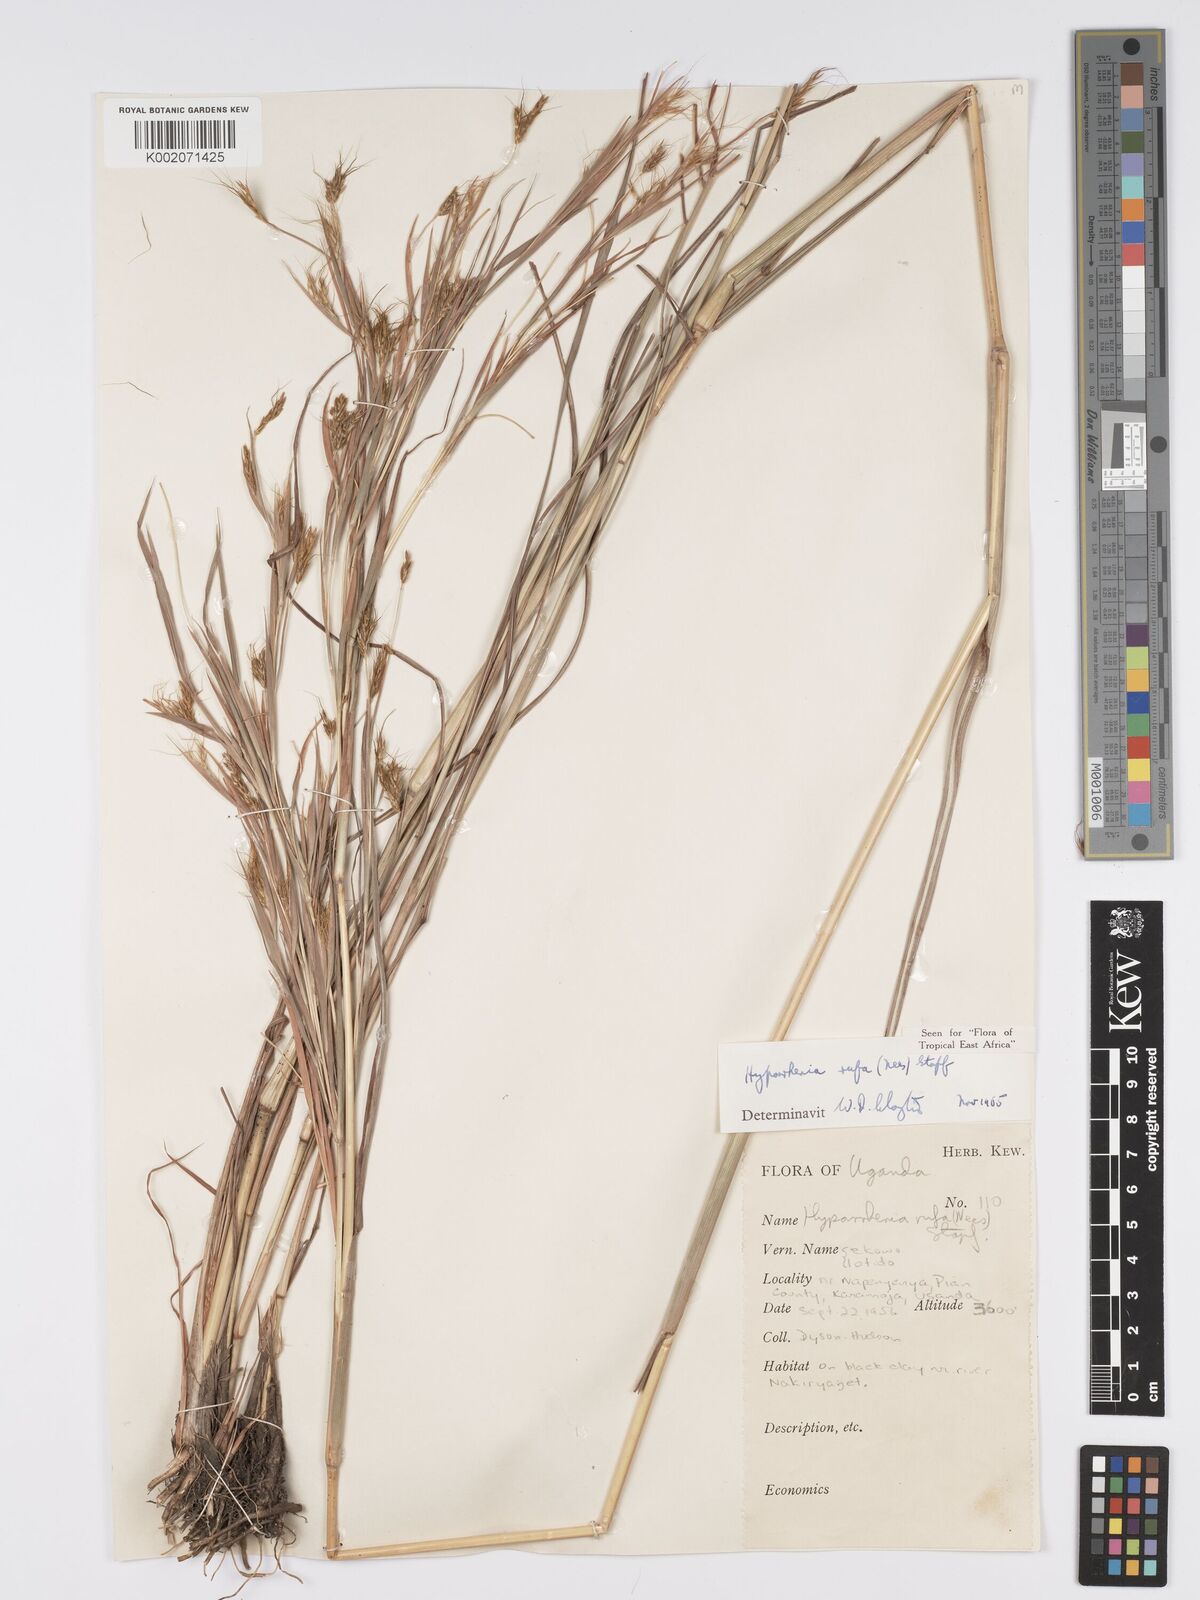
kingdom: Plantae
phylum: Tracheophyta
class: Liliopsida
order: Poales
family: Poaceae
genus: Hyparrhenia
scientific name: Hyparrhenia rufa
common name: Jaraguagrass
